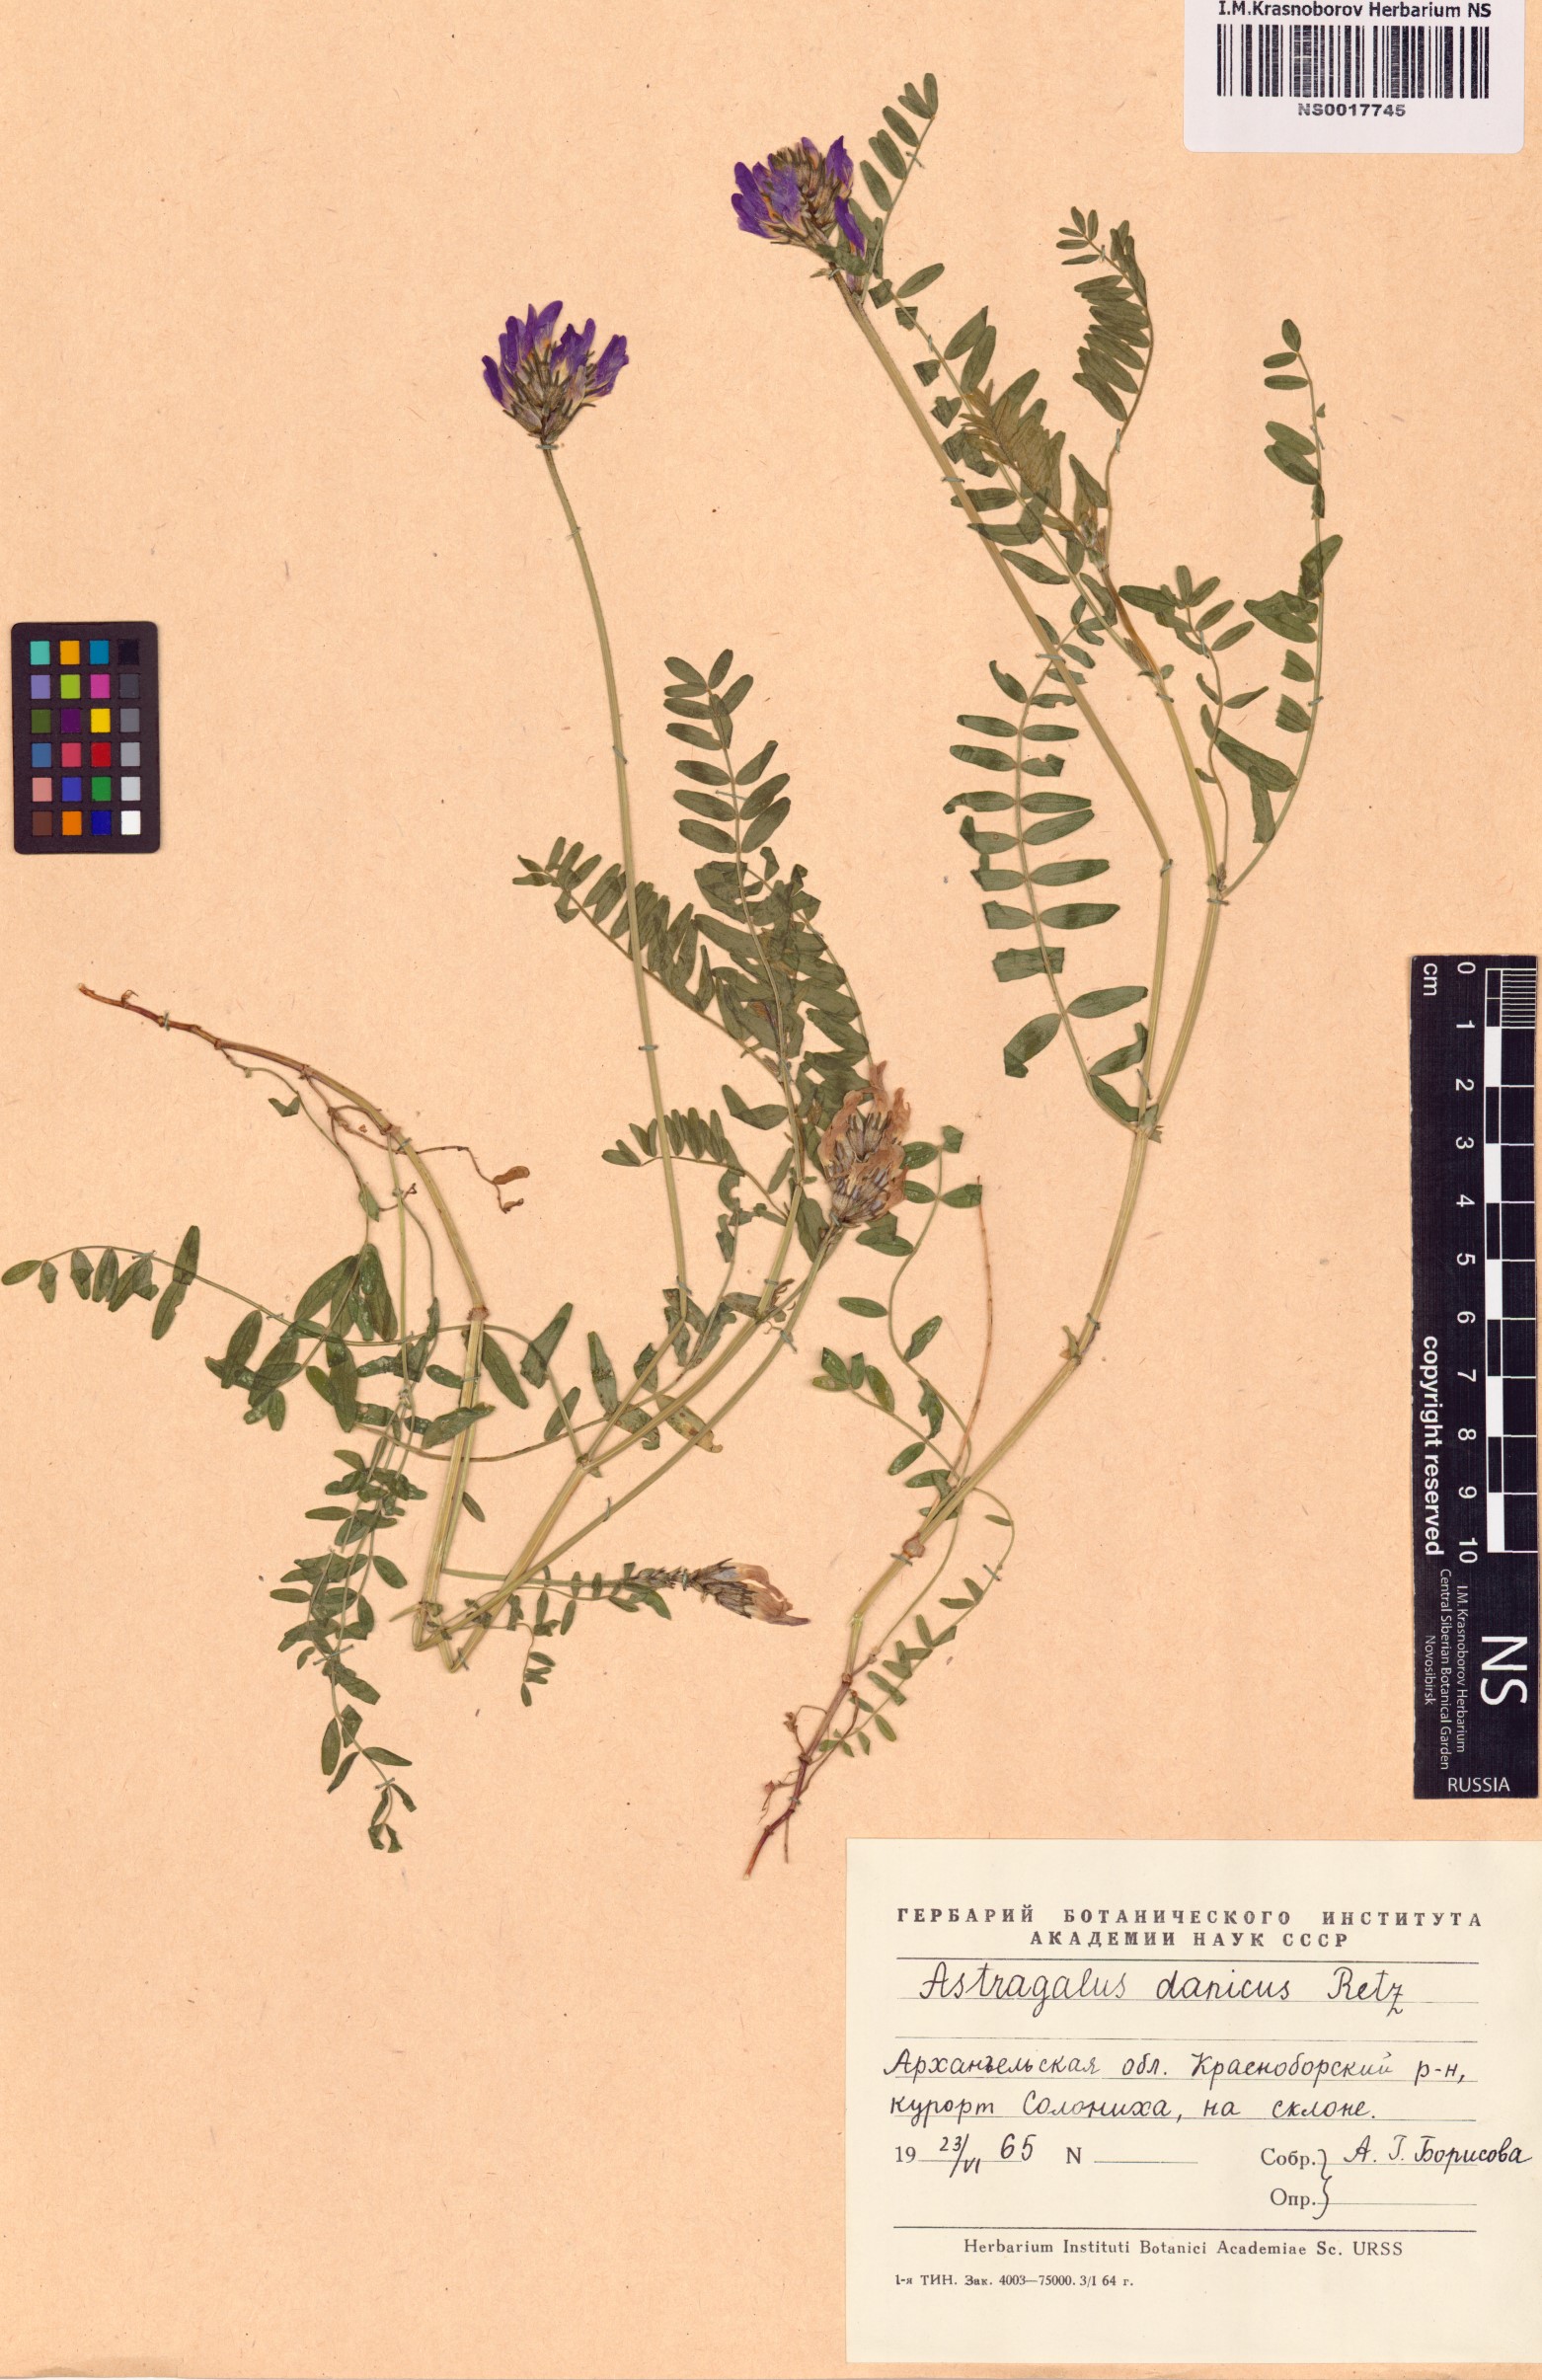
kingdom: Plantae
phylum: Tracheophyta
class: Magnoliopsida
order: Fabales
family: Fabaceae
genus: Astragalus
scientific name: Astragalus danicus
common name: Purple milk-vetch
